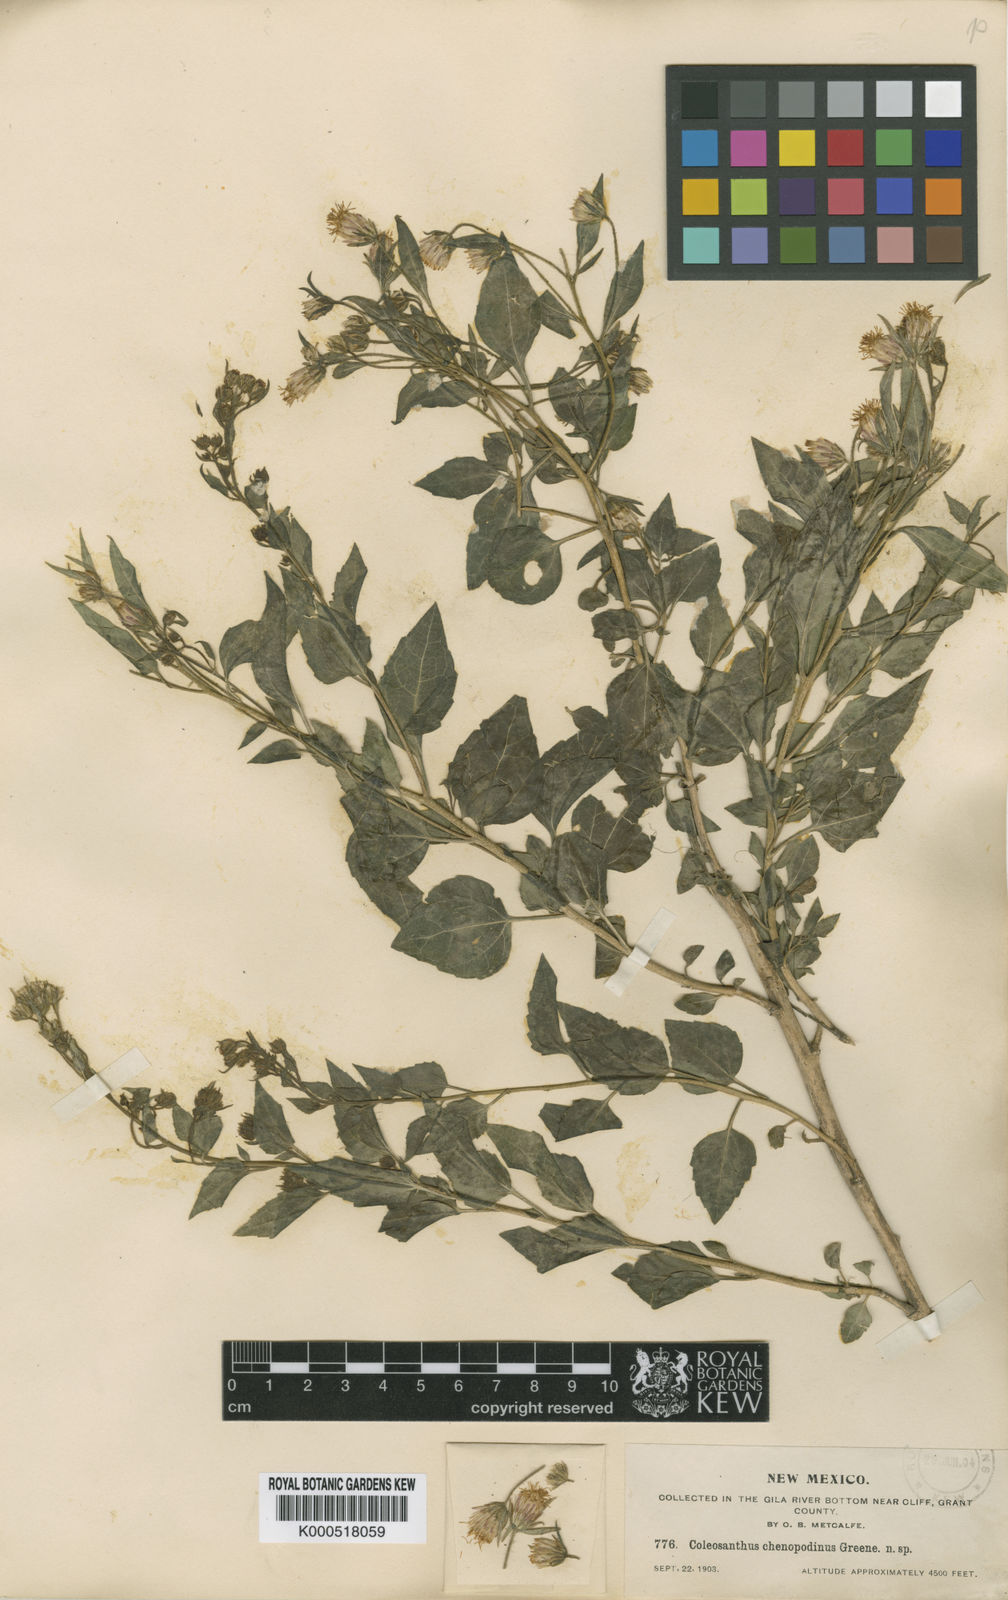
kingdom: Plantae
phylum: Tracheophyta
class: Magnoliopsida
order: Asterales
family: Asteraceae
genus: Brickellia
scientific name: Brickellia chenopodina
